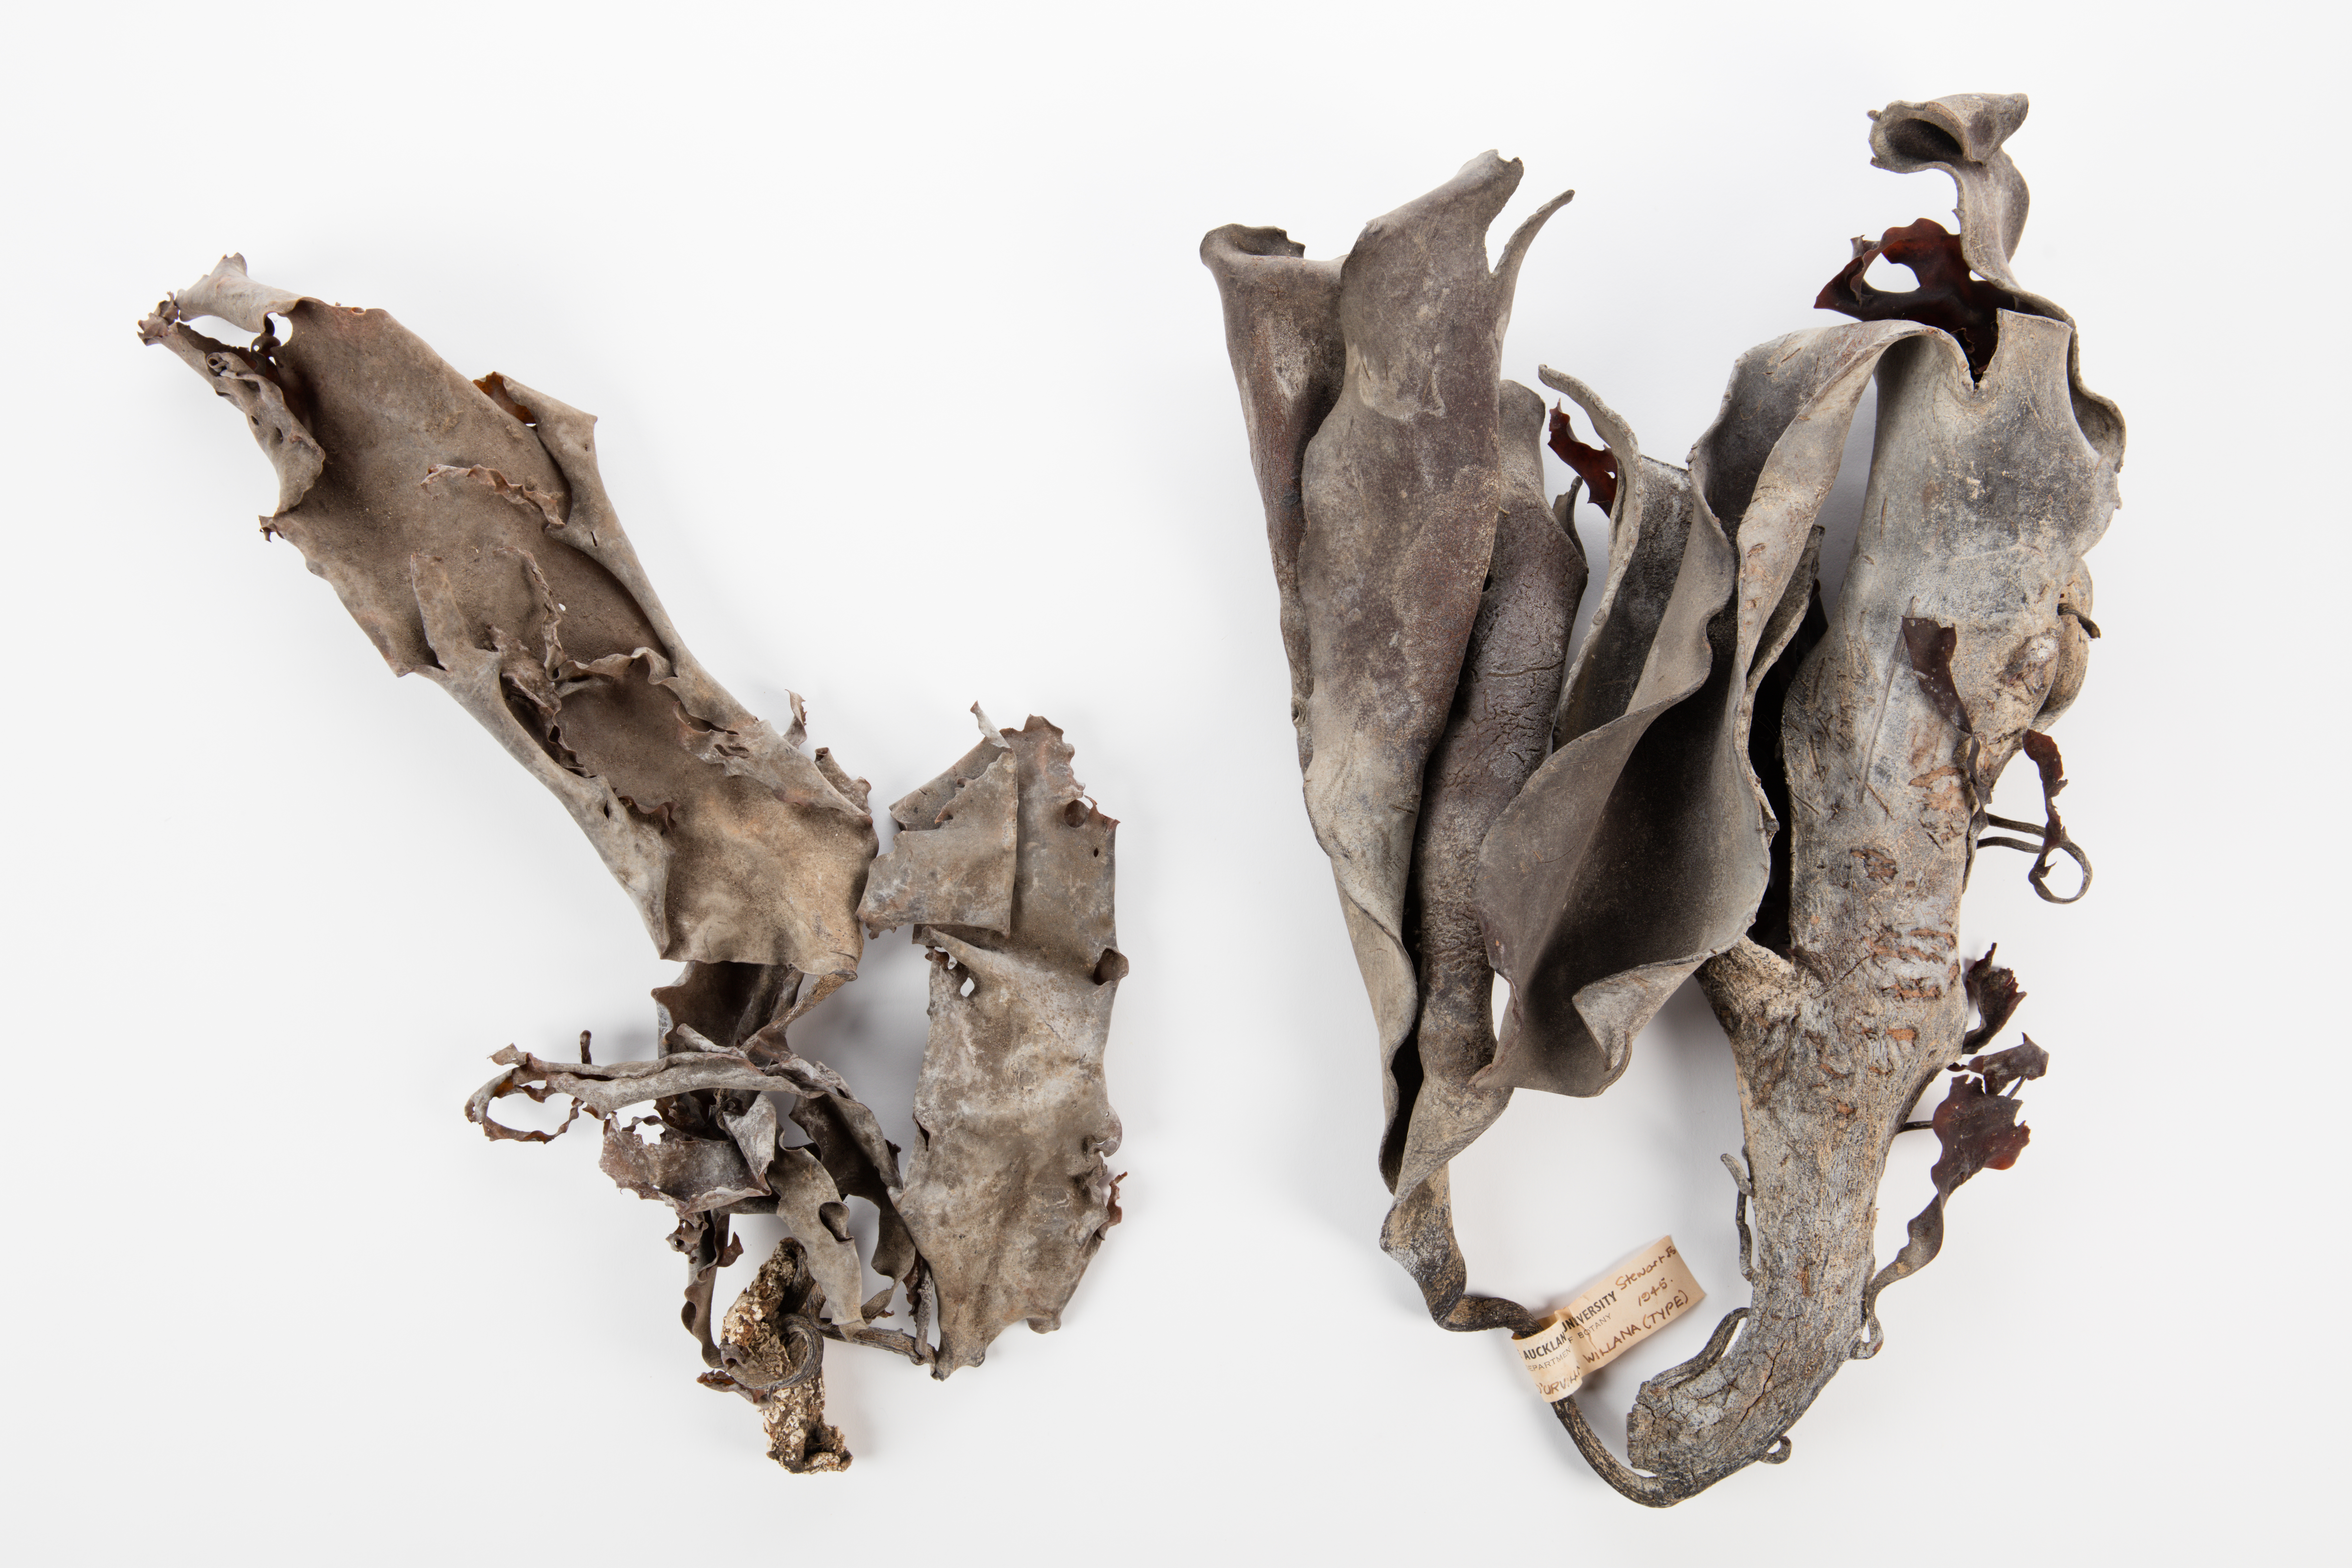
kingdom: Chromista
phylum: Ochrophyta
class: Phaeophyceae
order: Fucales
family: Durvillaeaceae
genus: Durvillaea
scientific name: Durvillaea willana
